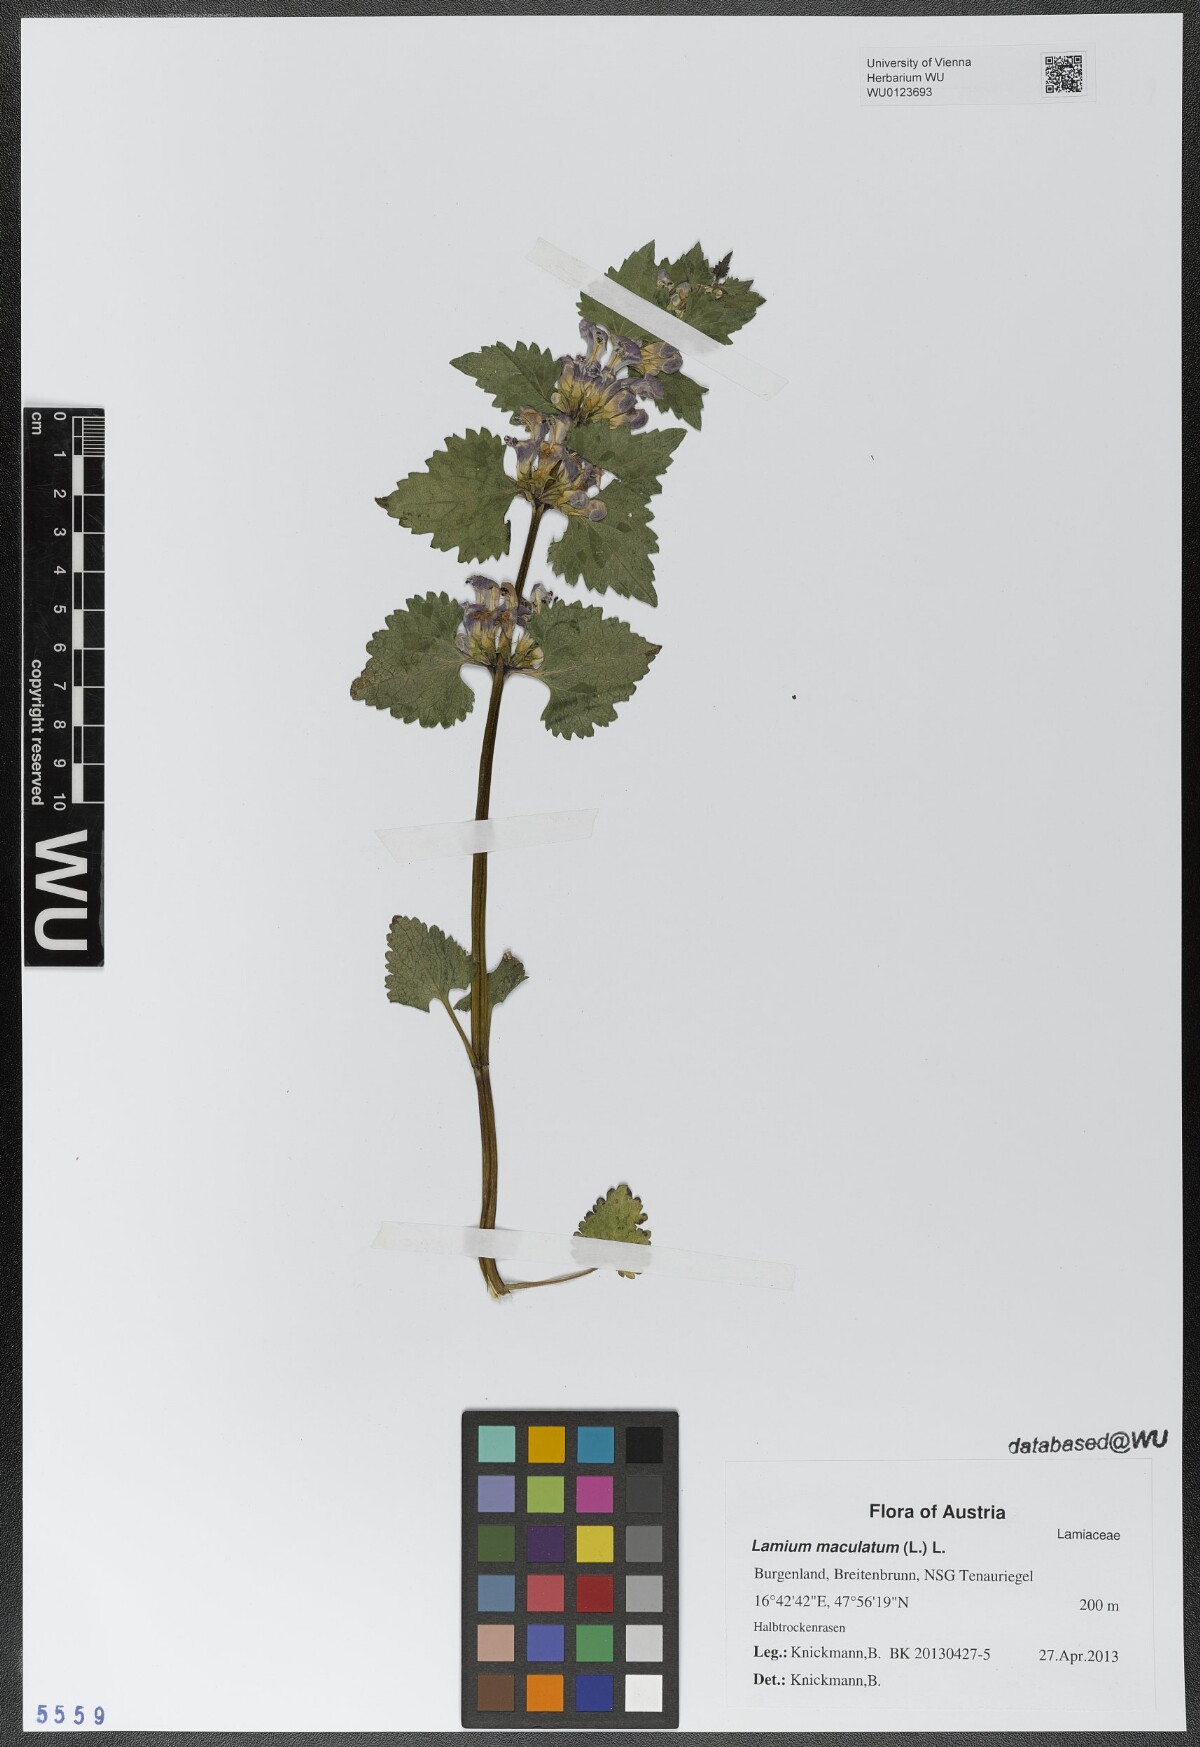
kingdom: Plantae
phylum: Tracheophyta
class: Magnoliopsida
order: Lamiales
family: Lamiaceae
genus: Lamium
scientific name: Lamium maculatum
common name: Spotted dead-nettle
